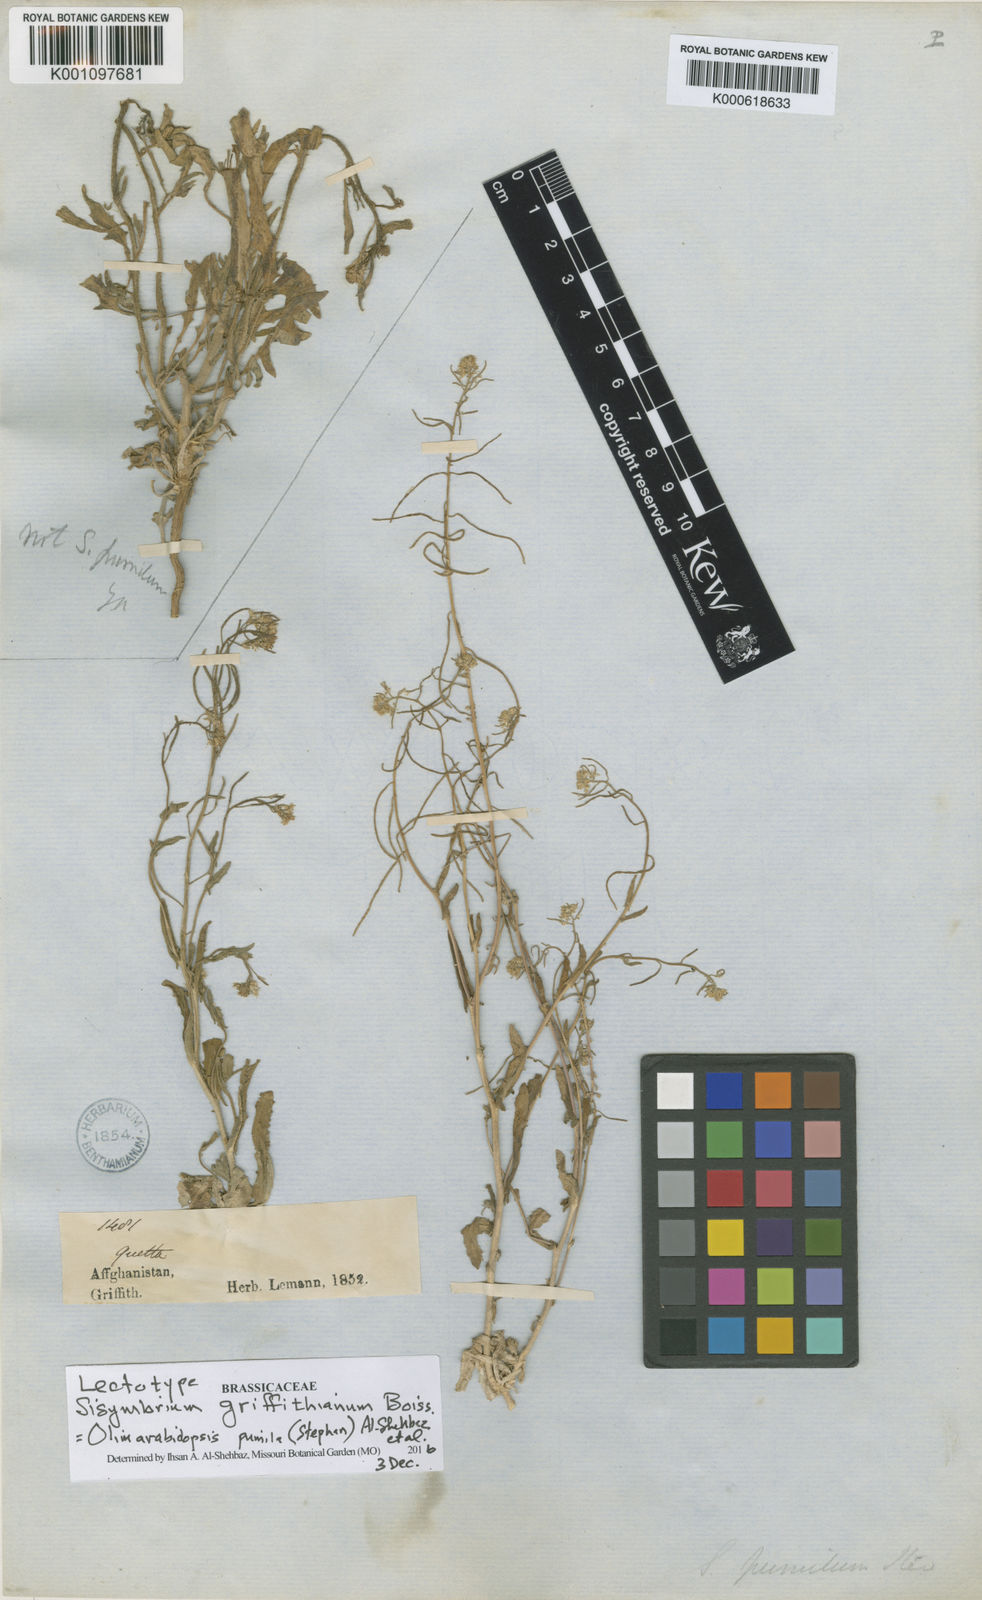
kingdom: Plantae
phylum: Tracheophyta
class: Magnoliopsida
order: Brassicales
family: Brassicaceae
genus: Olimarabidopsis
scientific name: Olimarabidopsis
